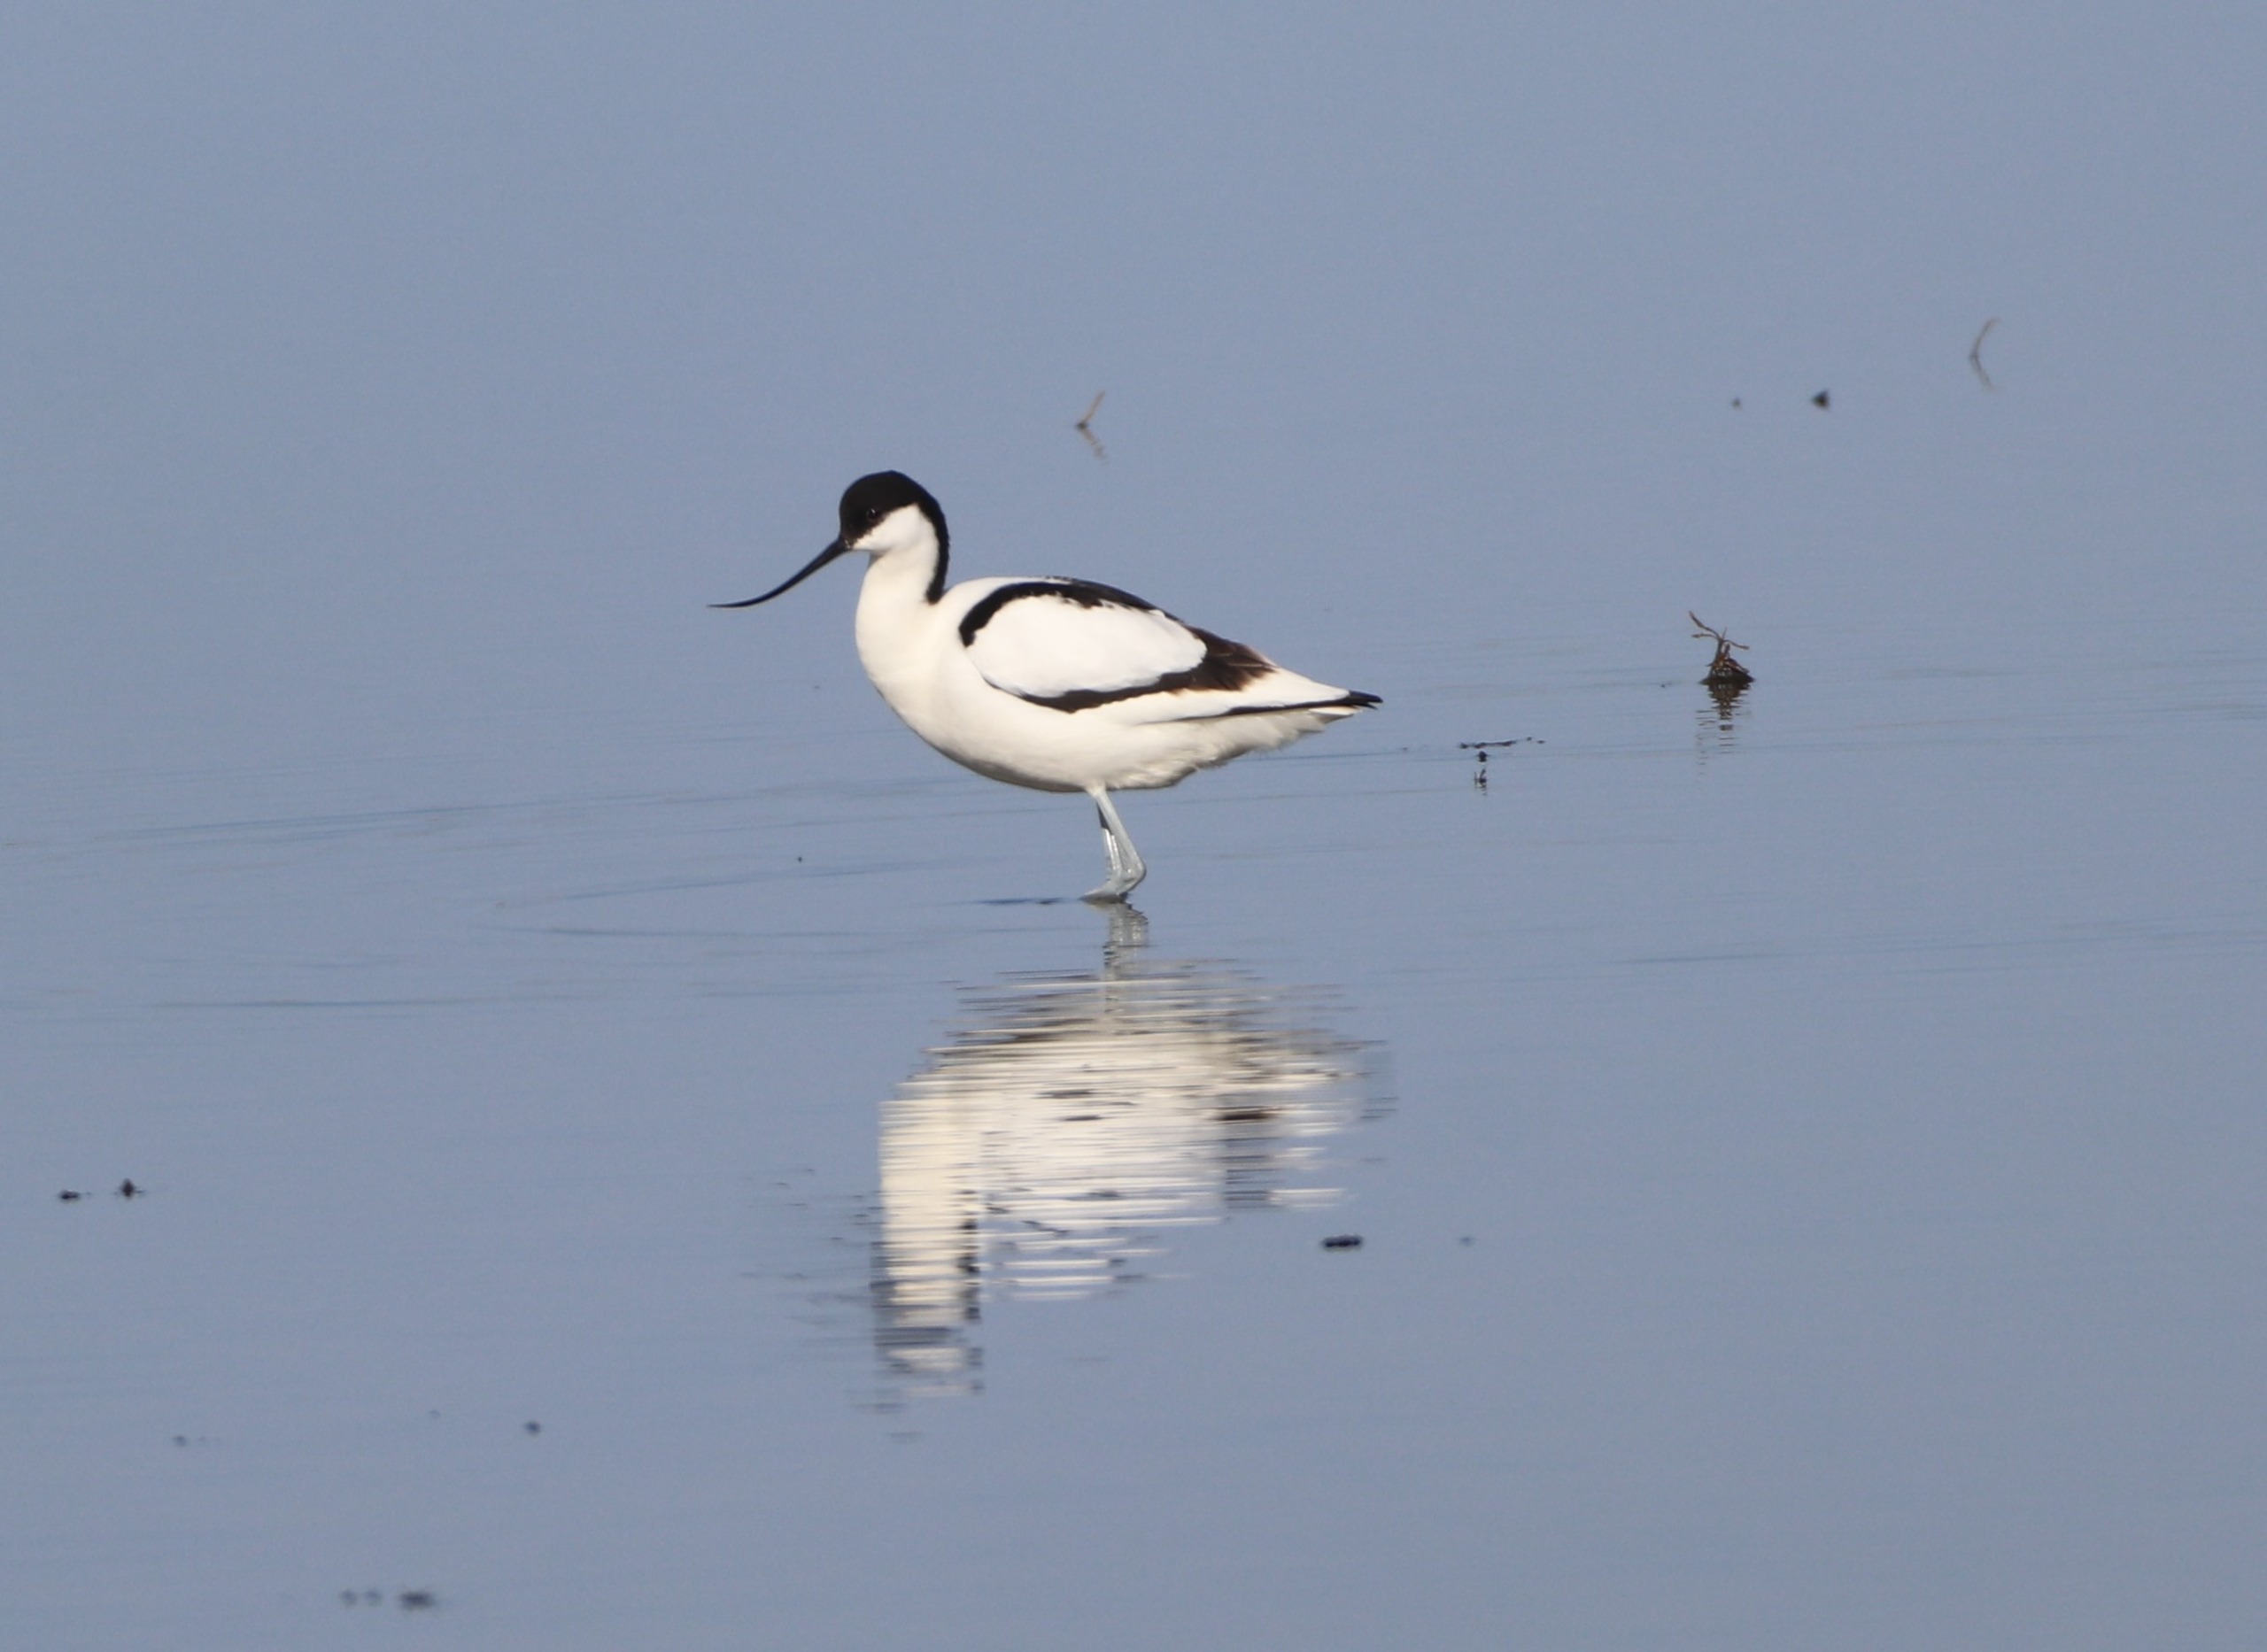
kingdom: Animalia
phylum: Chordata
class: Aves
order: Charadriiformes
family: Recurvirostridae
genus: Recurvirostra
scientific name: Recurvirostra avosetta
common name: Klyde
